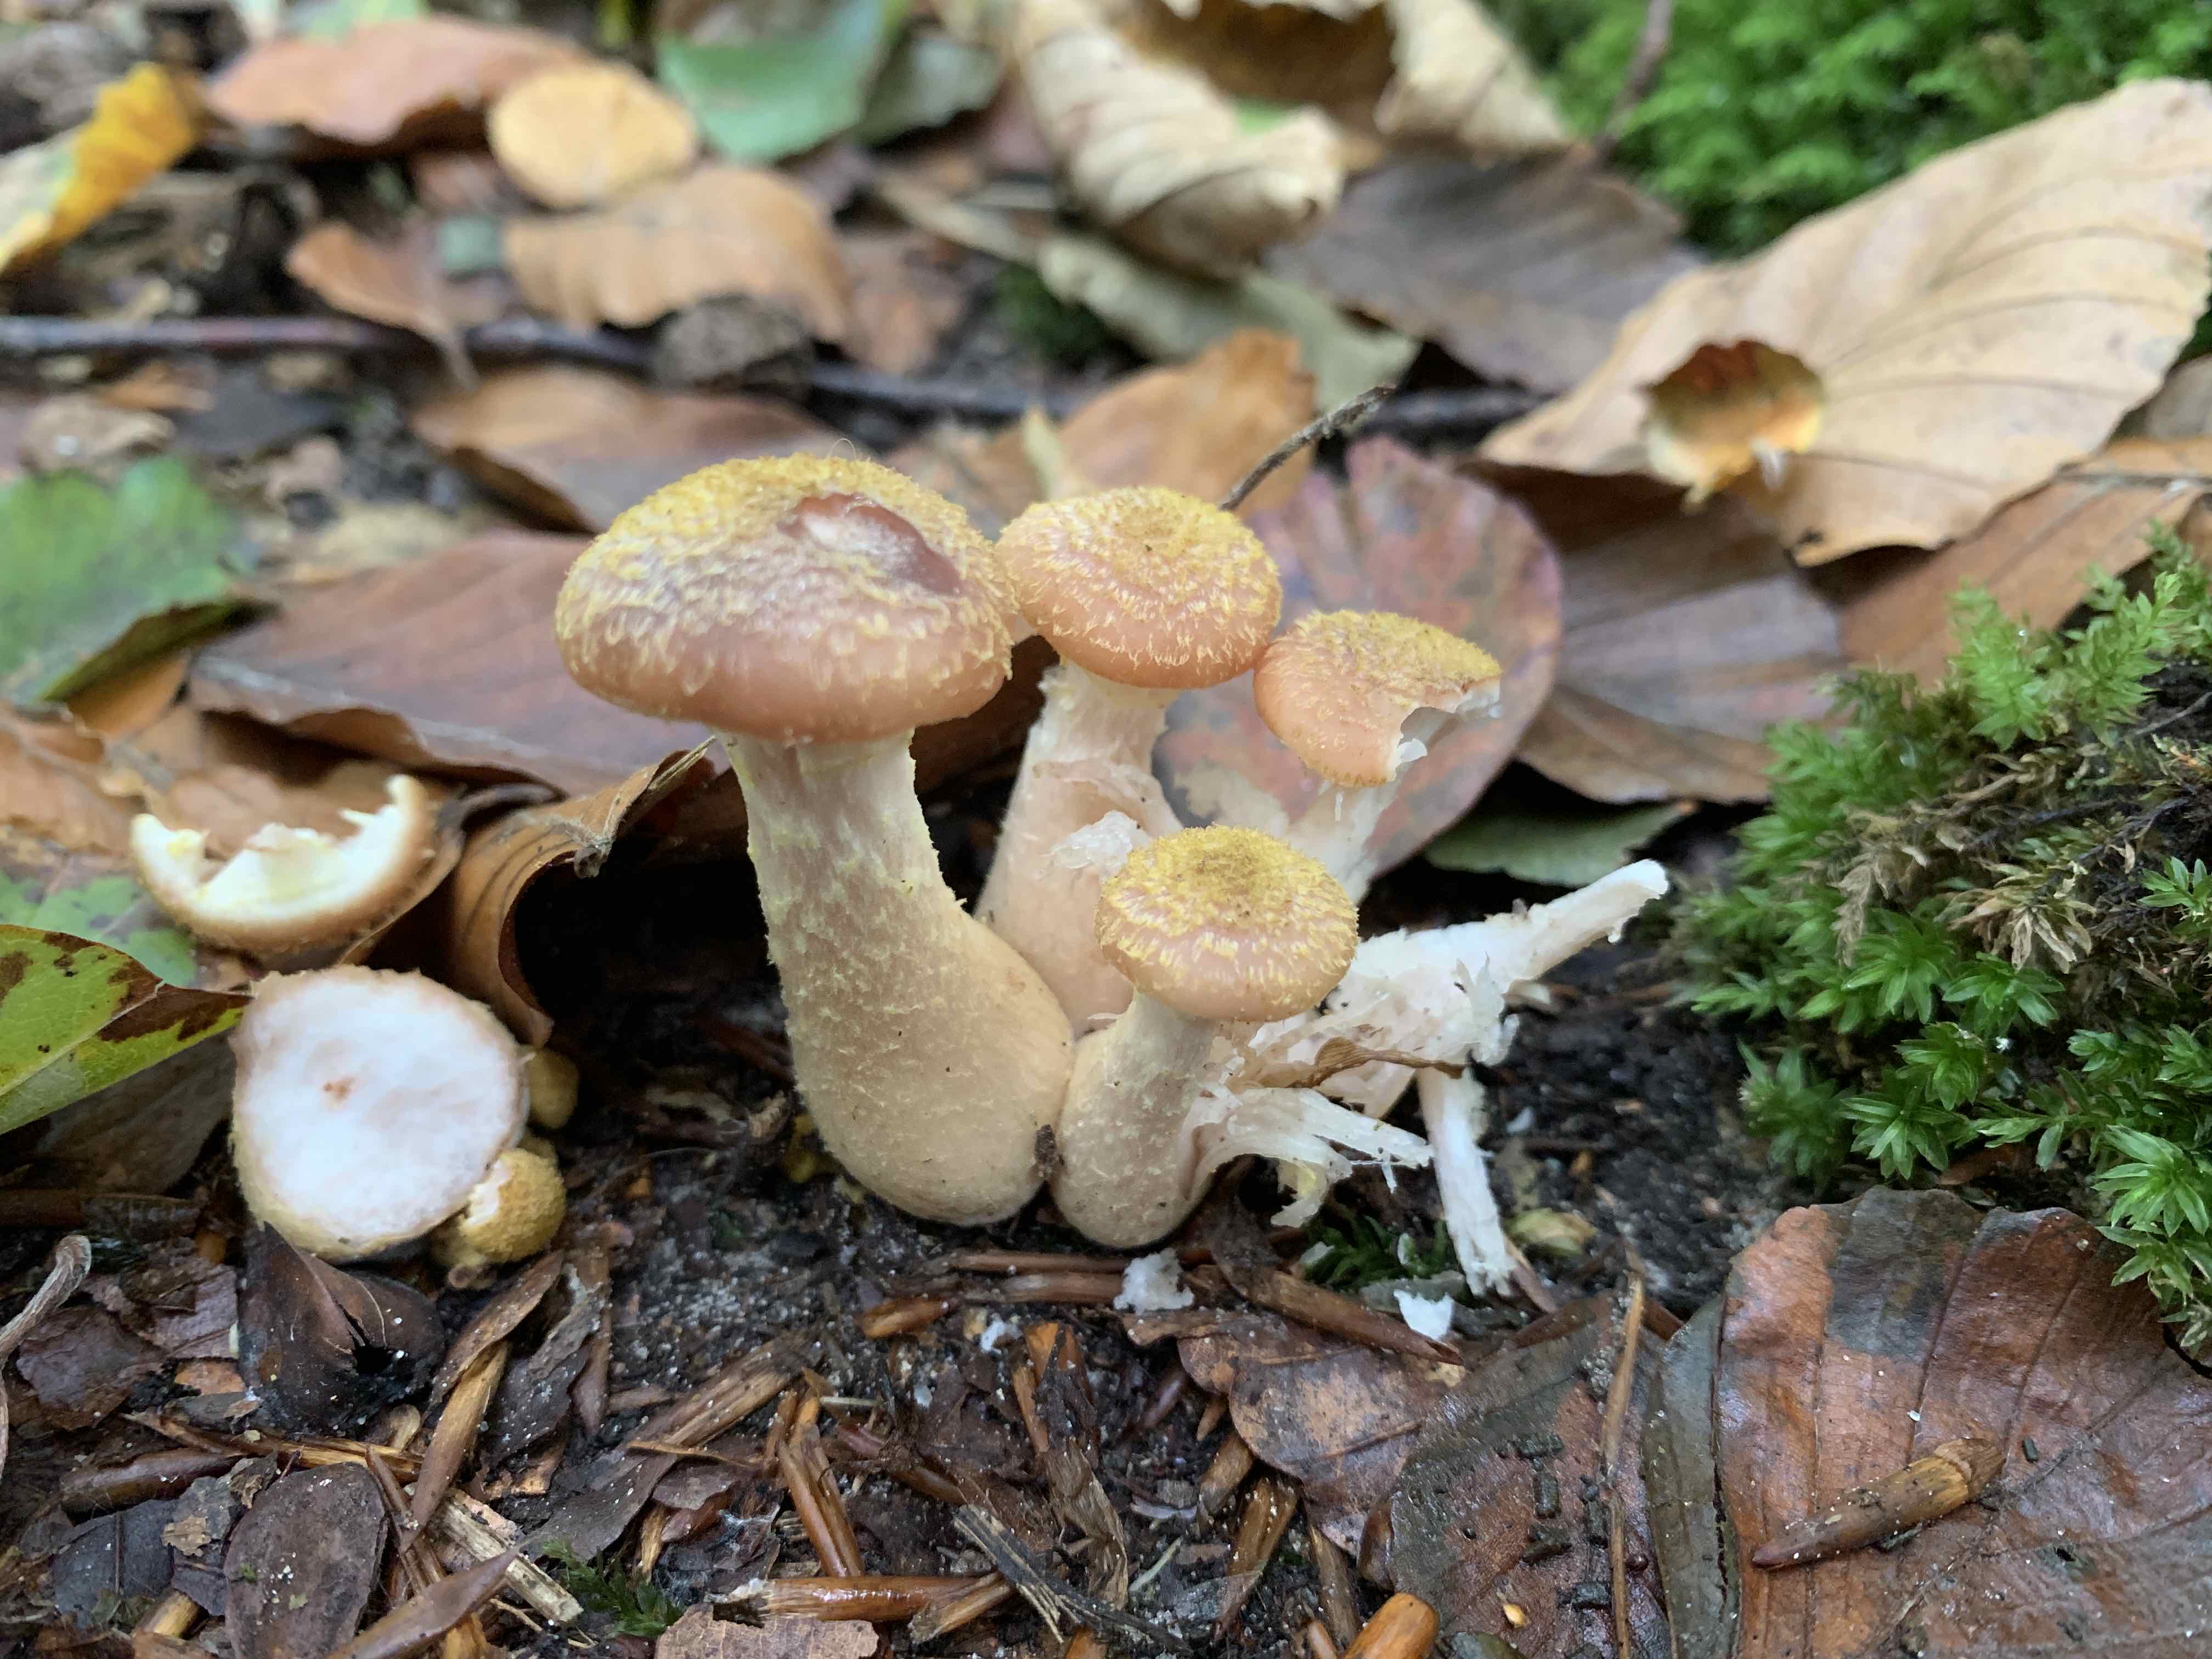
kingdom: Fungi
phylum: Basidiomycota
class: Agaricomycetes
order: Agaricales
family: Physalacriaceae
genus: Armillaria
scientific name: Armillaria lutea
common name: køllestokket honningsvamp
